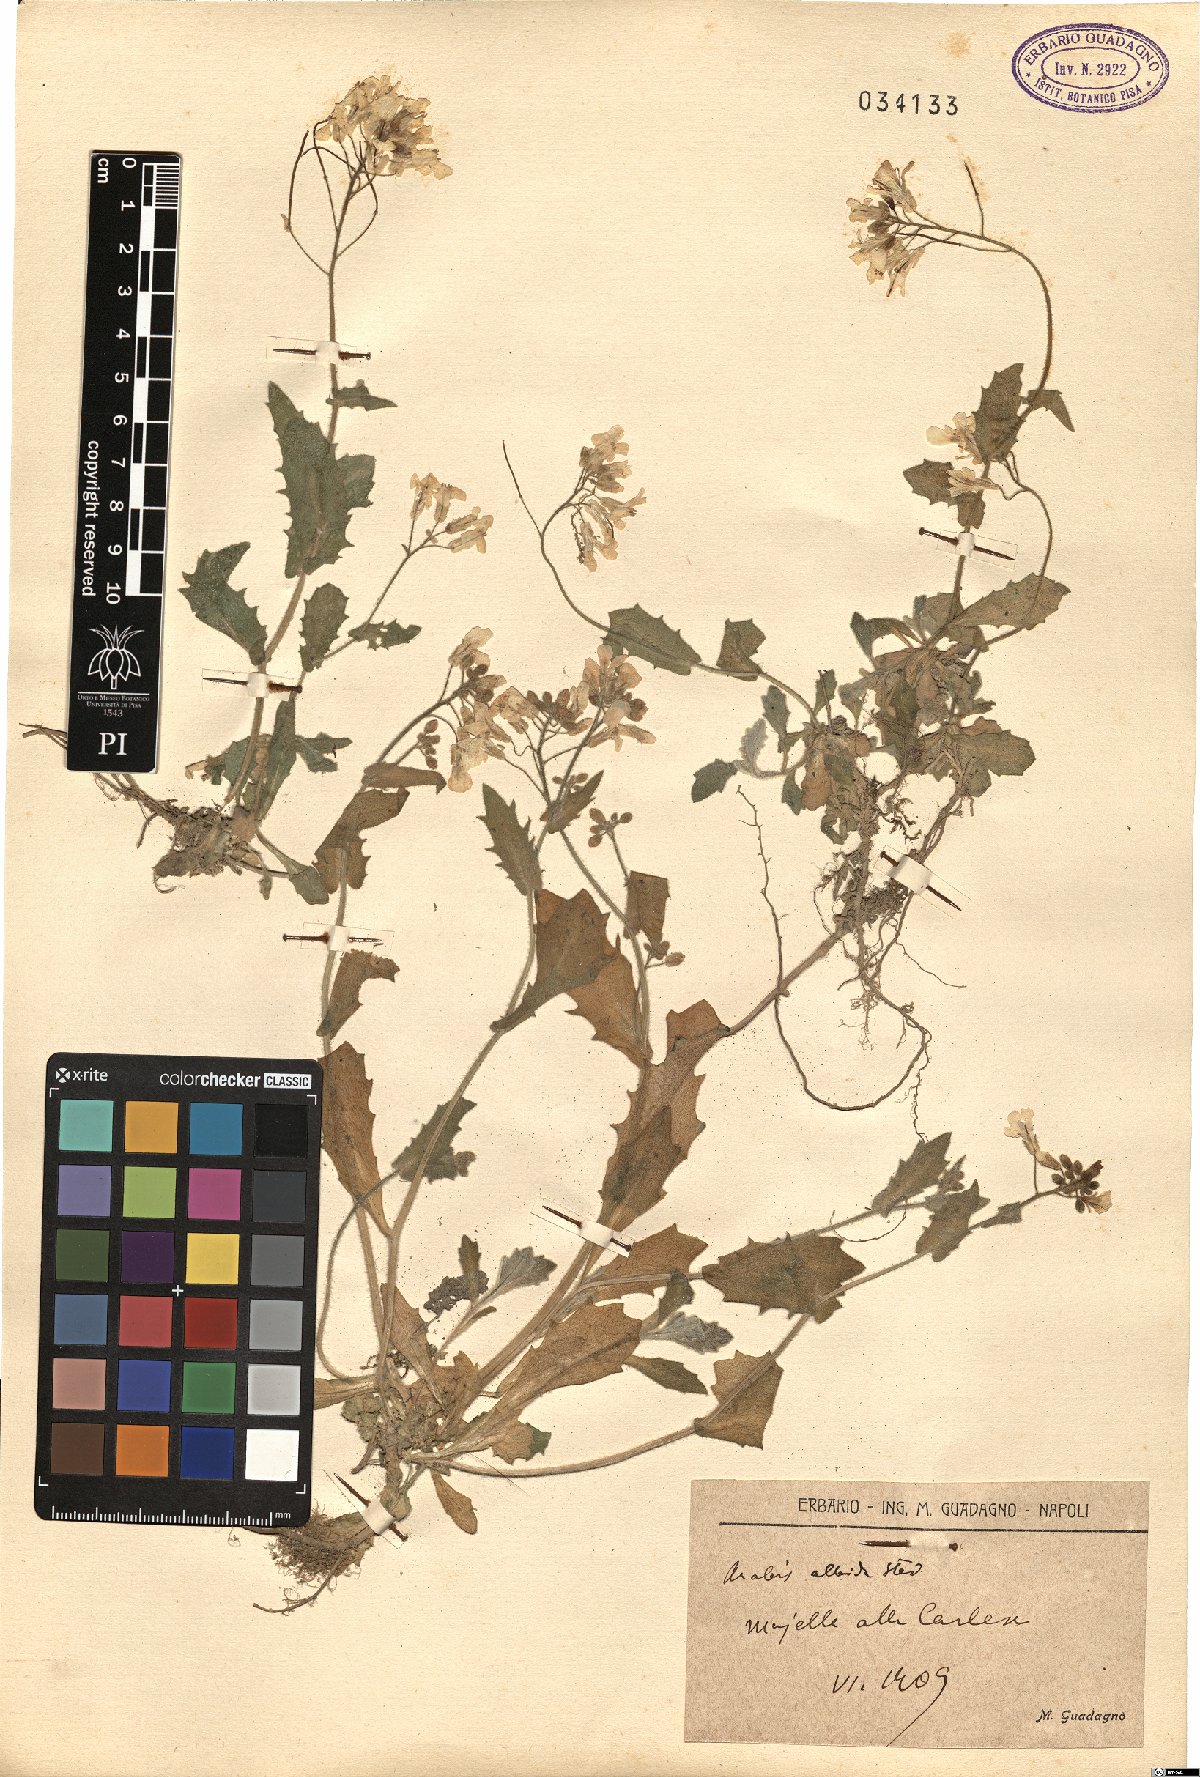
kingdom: Plantae
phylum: Tracheophyta
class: Magnoliopsida
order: Brassicales
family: Brassicaceae
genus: Arabis
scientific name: Arabis caucasica
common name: Gray rockcress
